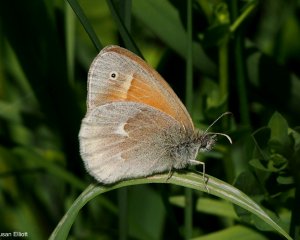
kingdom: Animalia
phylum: Arthropoda
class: Insecta
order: Lepidoptera
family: Nymphalidae
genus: Coenonympha
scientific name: Coenonympha tullia
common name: Large Heath
